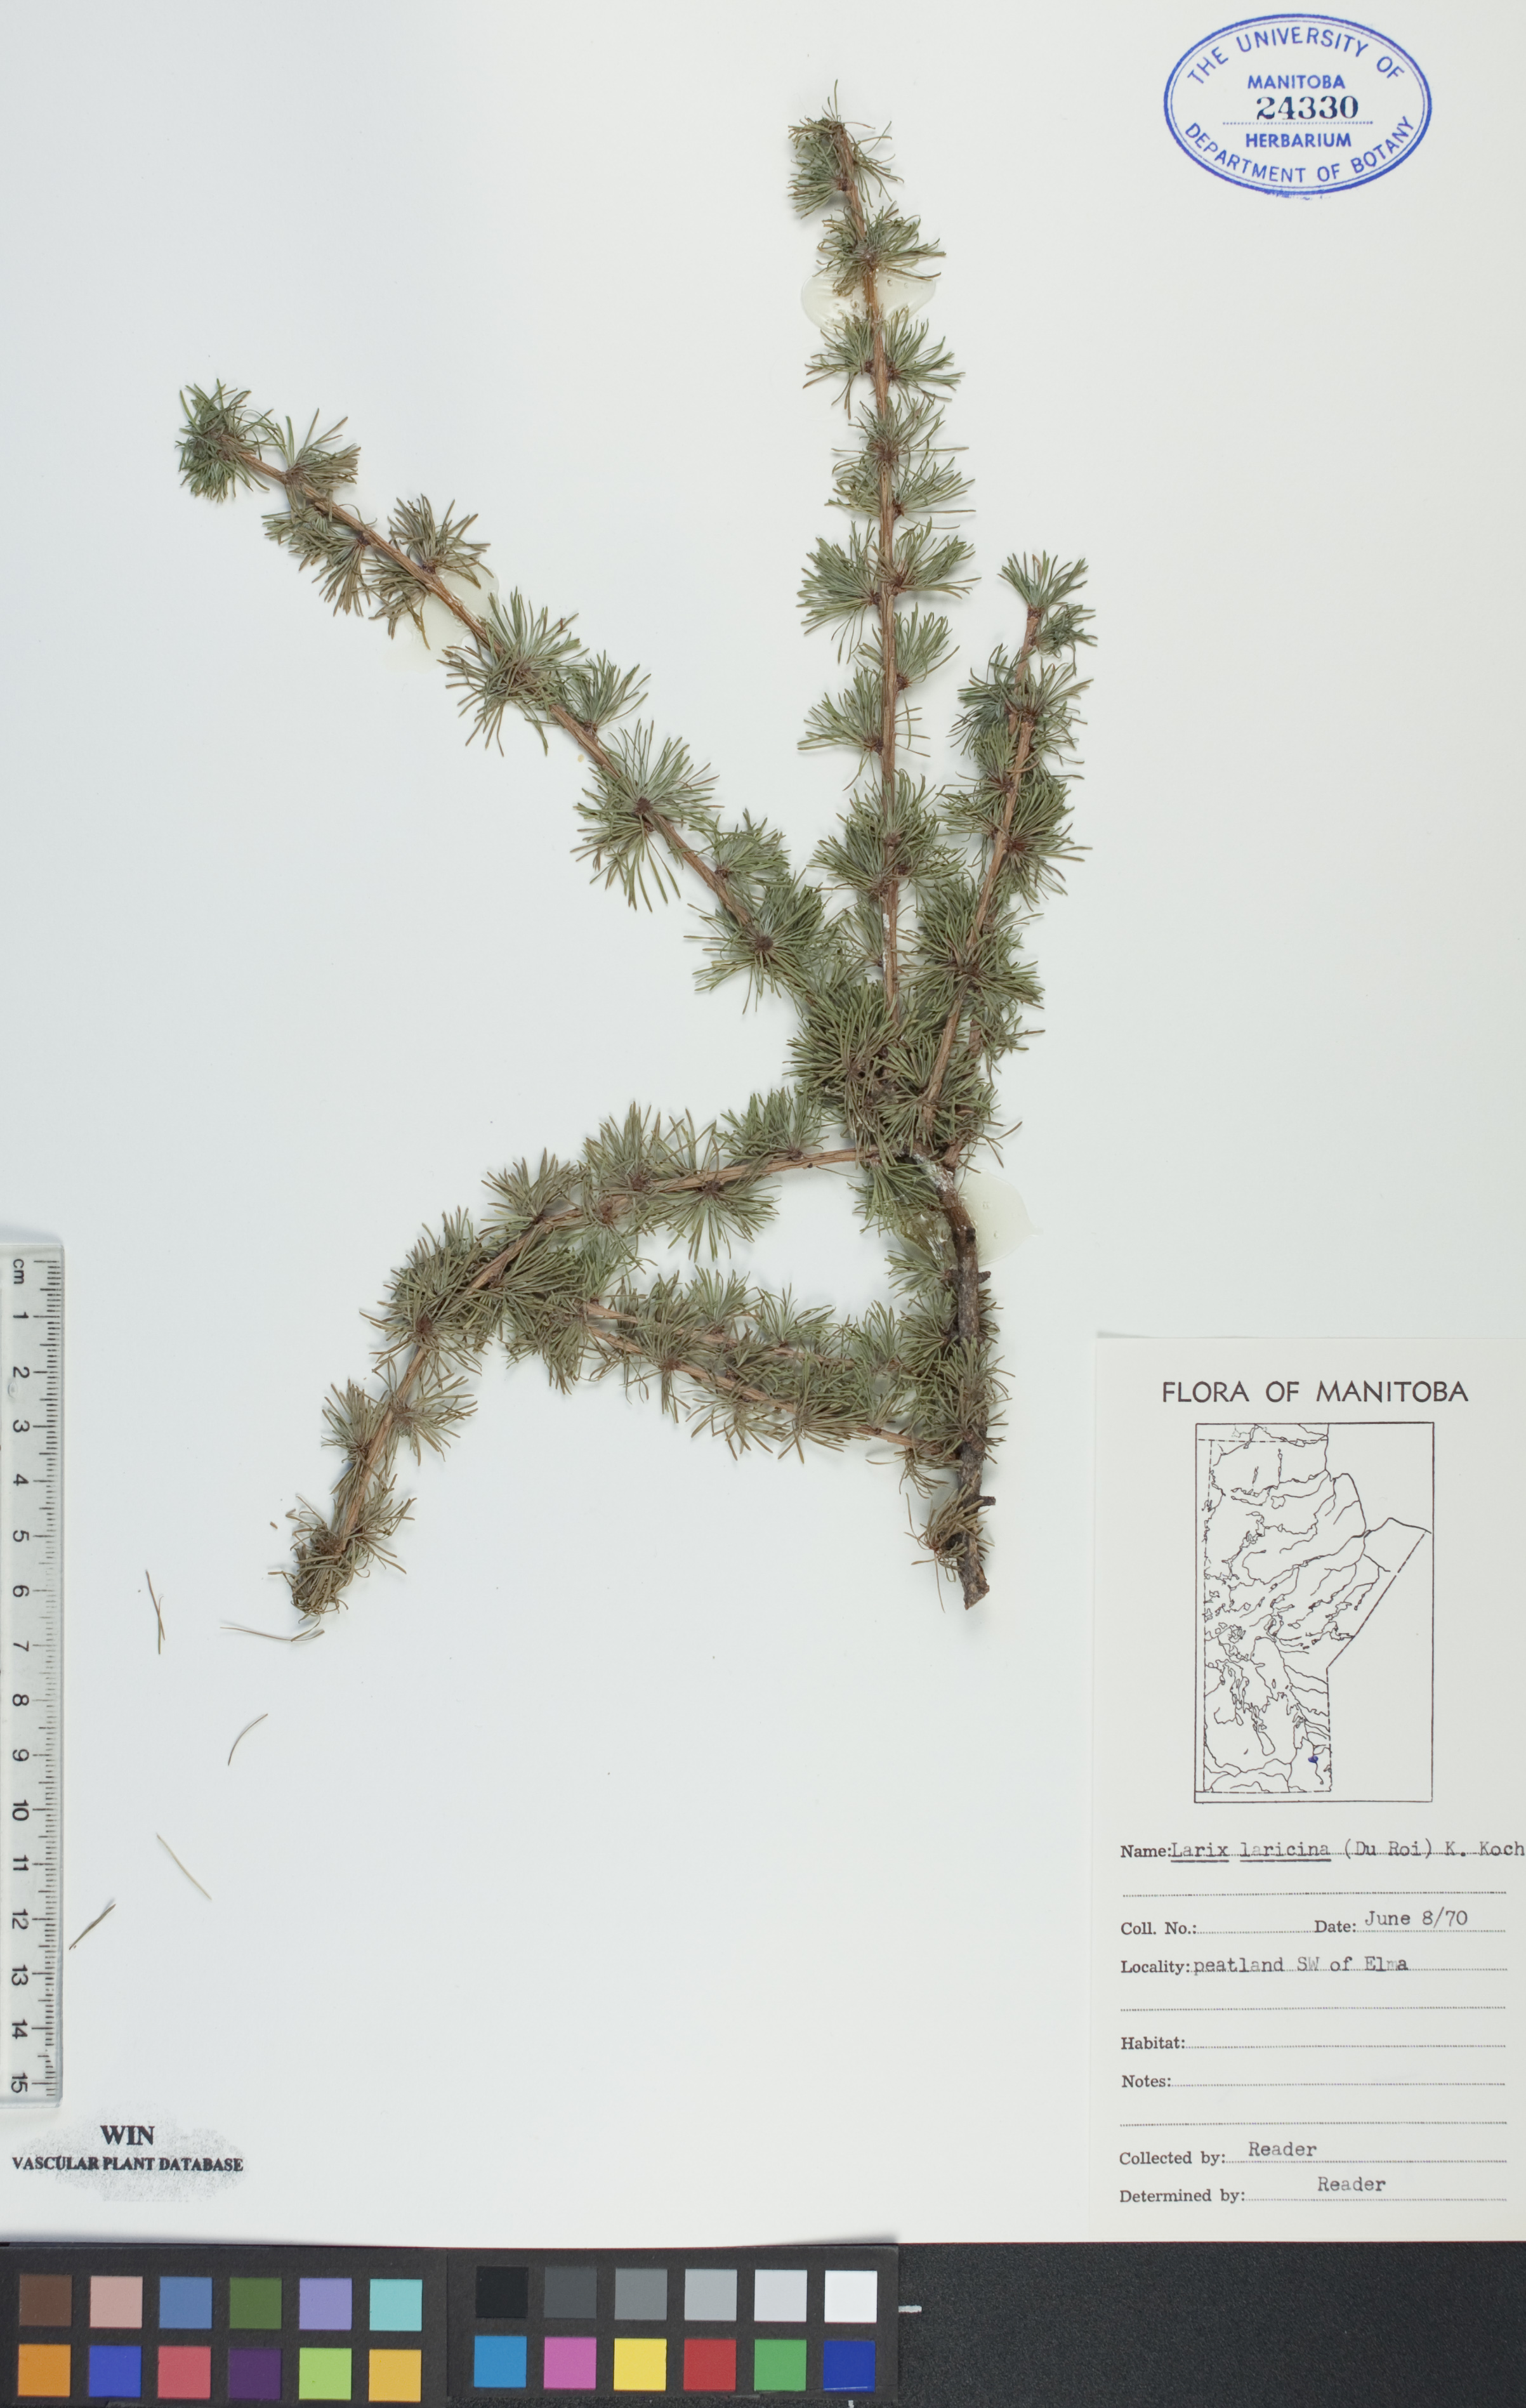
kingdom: Plantae
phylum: Tracheophyta
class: Pinopsida
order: Pinales
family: Pinaceae
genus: Larix
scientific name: Larix laricina
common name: American larch
